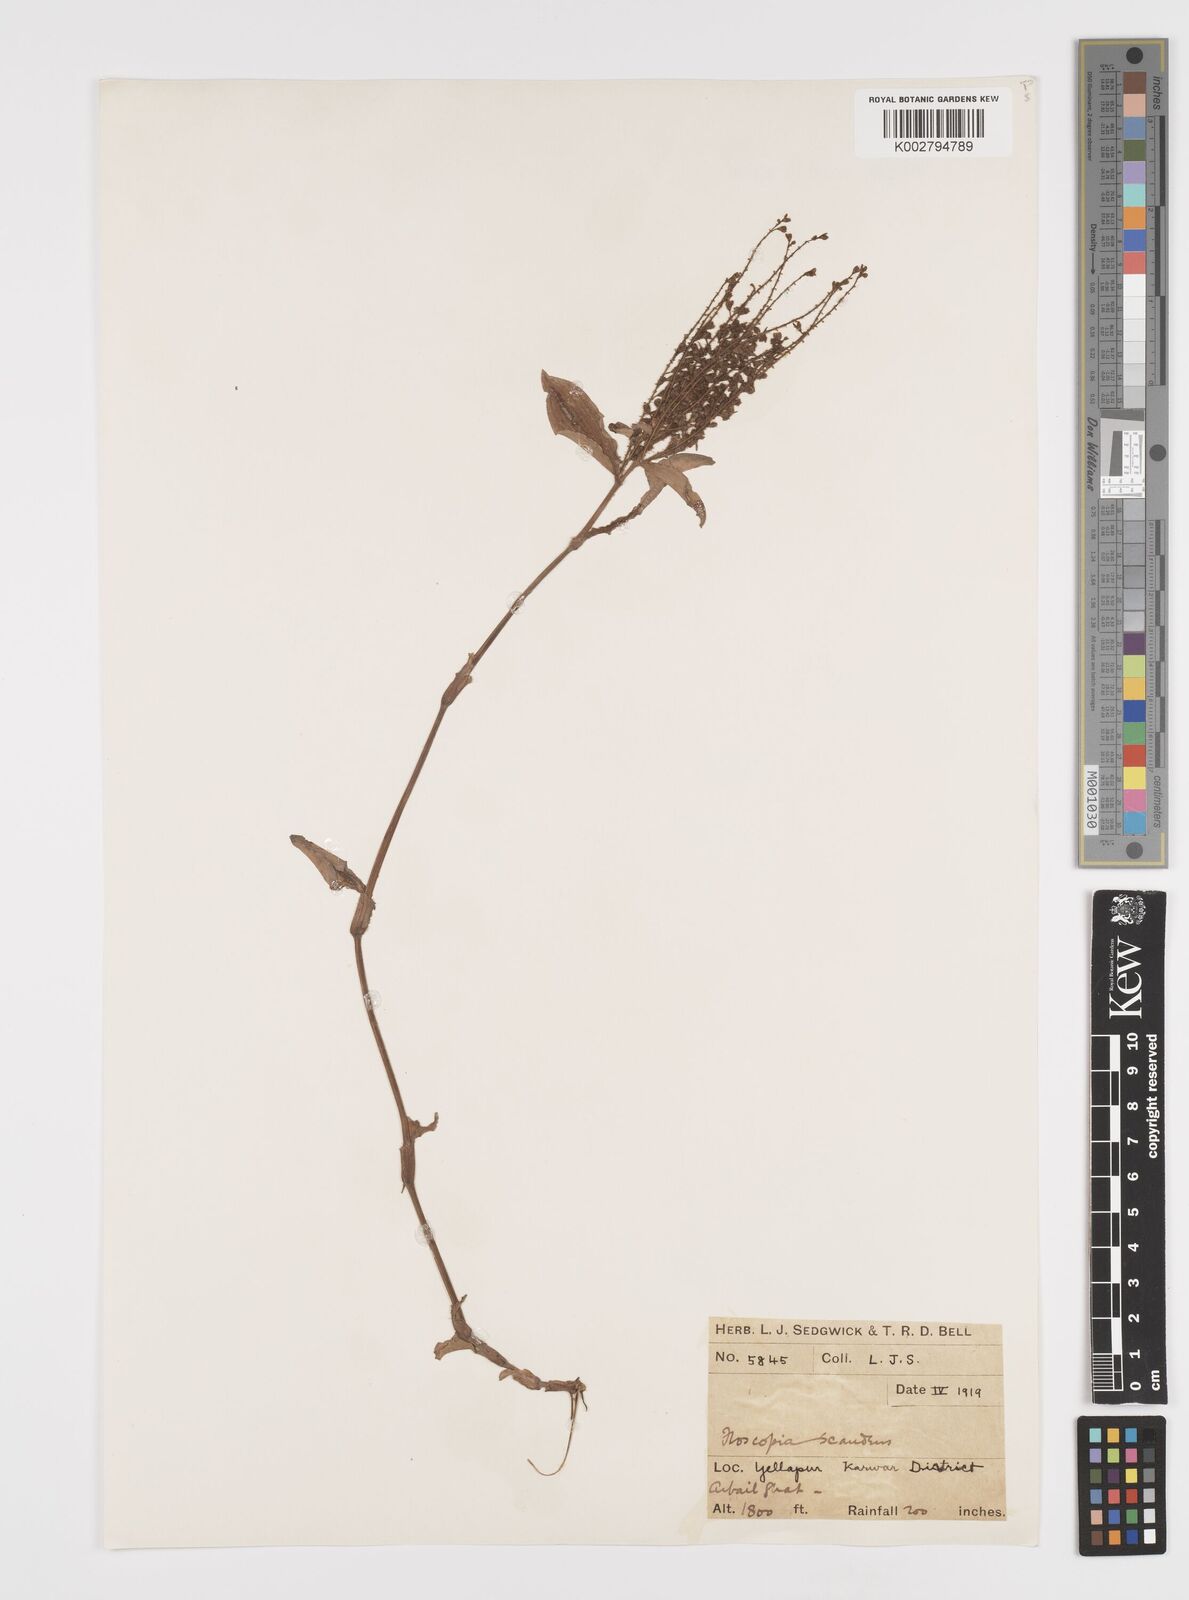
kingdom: Plantae
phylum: Tracheophyta
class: Liliopsida
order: Commelinales
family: Commelinaceae
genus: Floscopa
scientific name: Floscopa scandens
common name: Climbing flower cup
